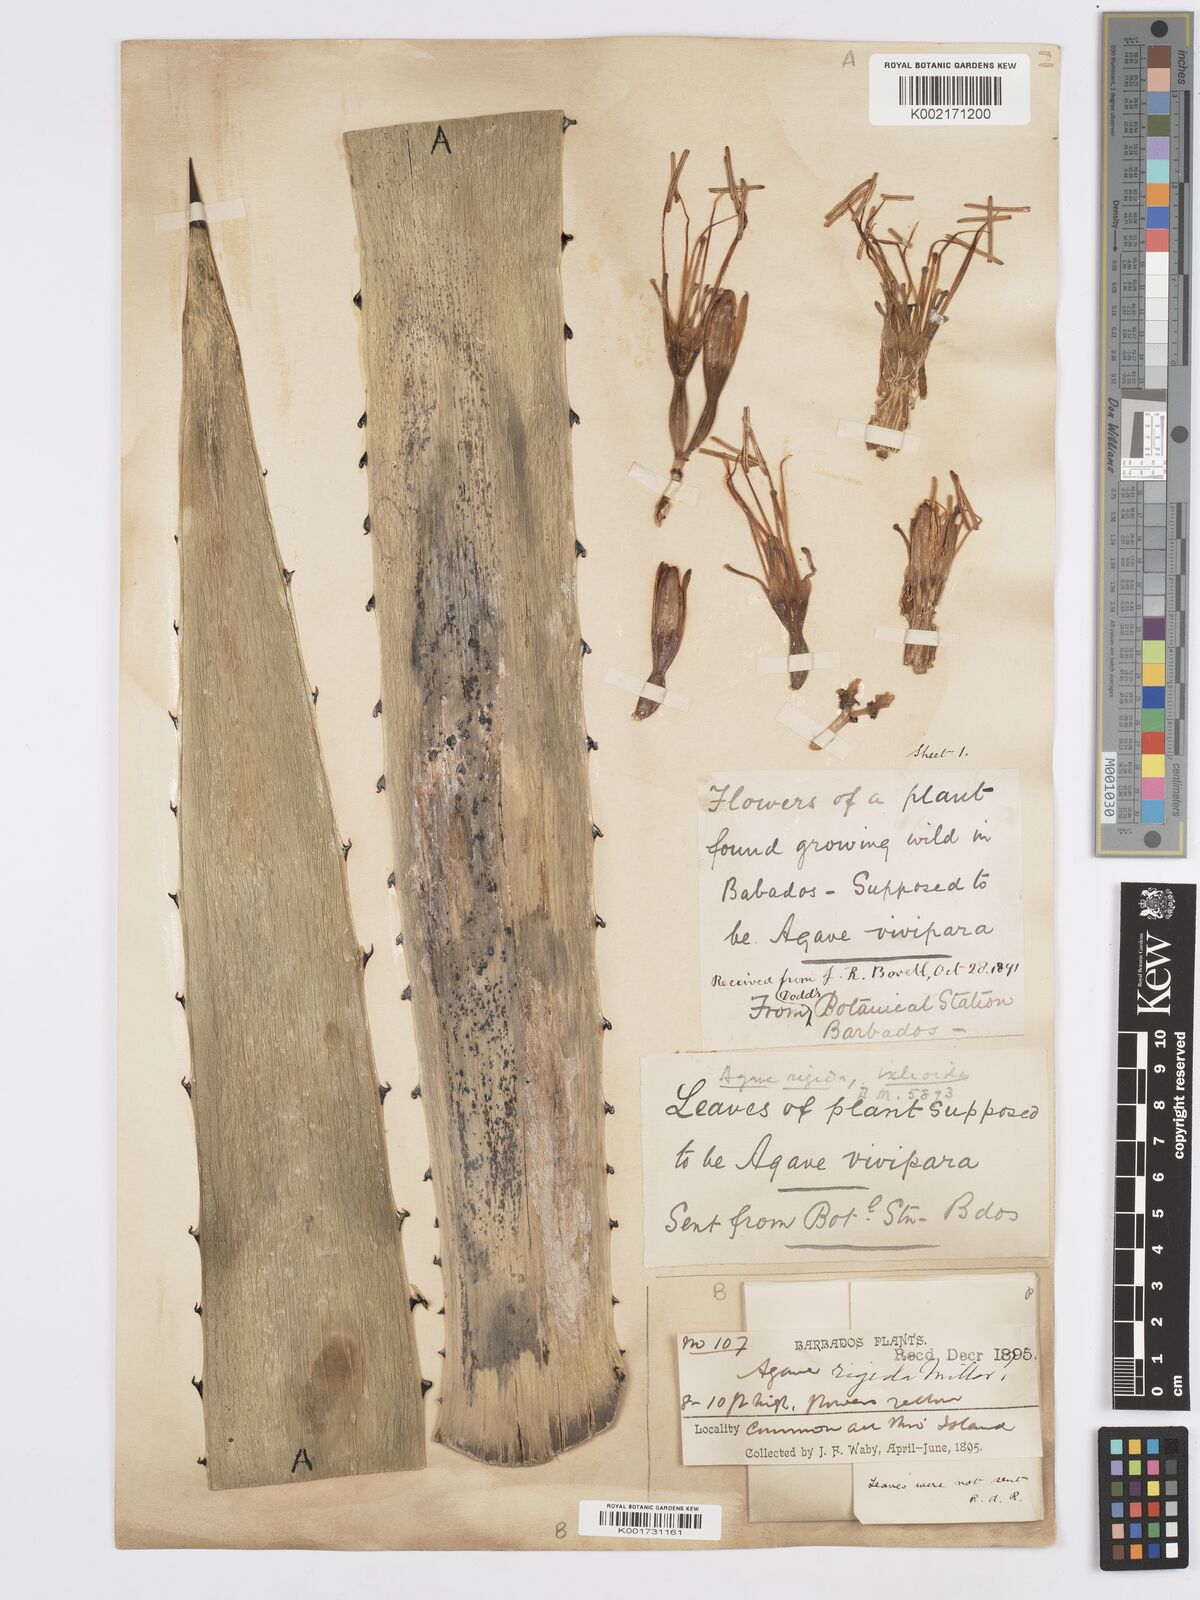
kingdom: Plantae
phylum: Tracheophyta
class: Liliopsida
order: Asparagales
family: Asparagaceae
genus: Agave
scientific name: Agave angustifolia
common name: Mescal agave
